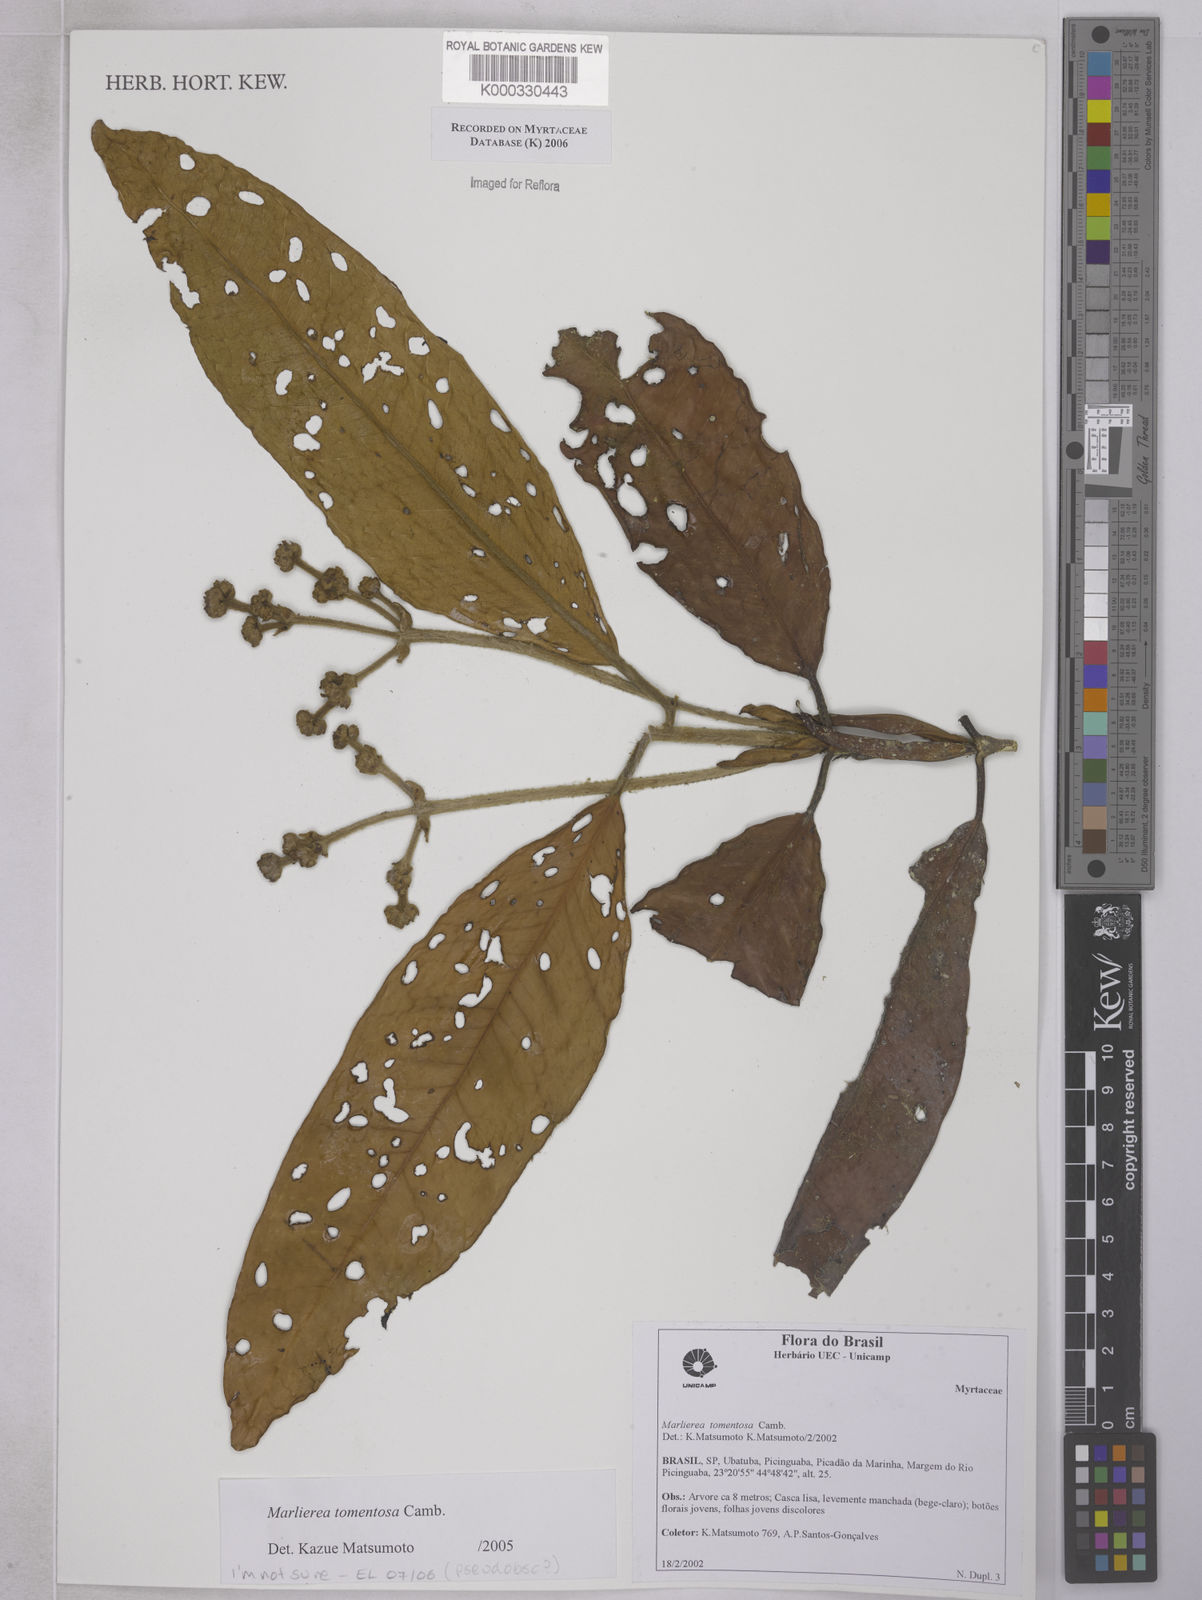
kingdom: Plantae
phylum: Tracheophyta
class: Magnoliopsida
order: Myrtales
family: Myrtaceae
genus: Myrcia
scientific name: Myrcia neotomentosa
